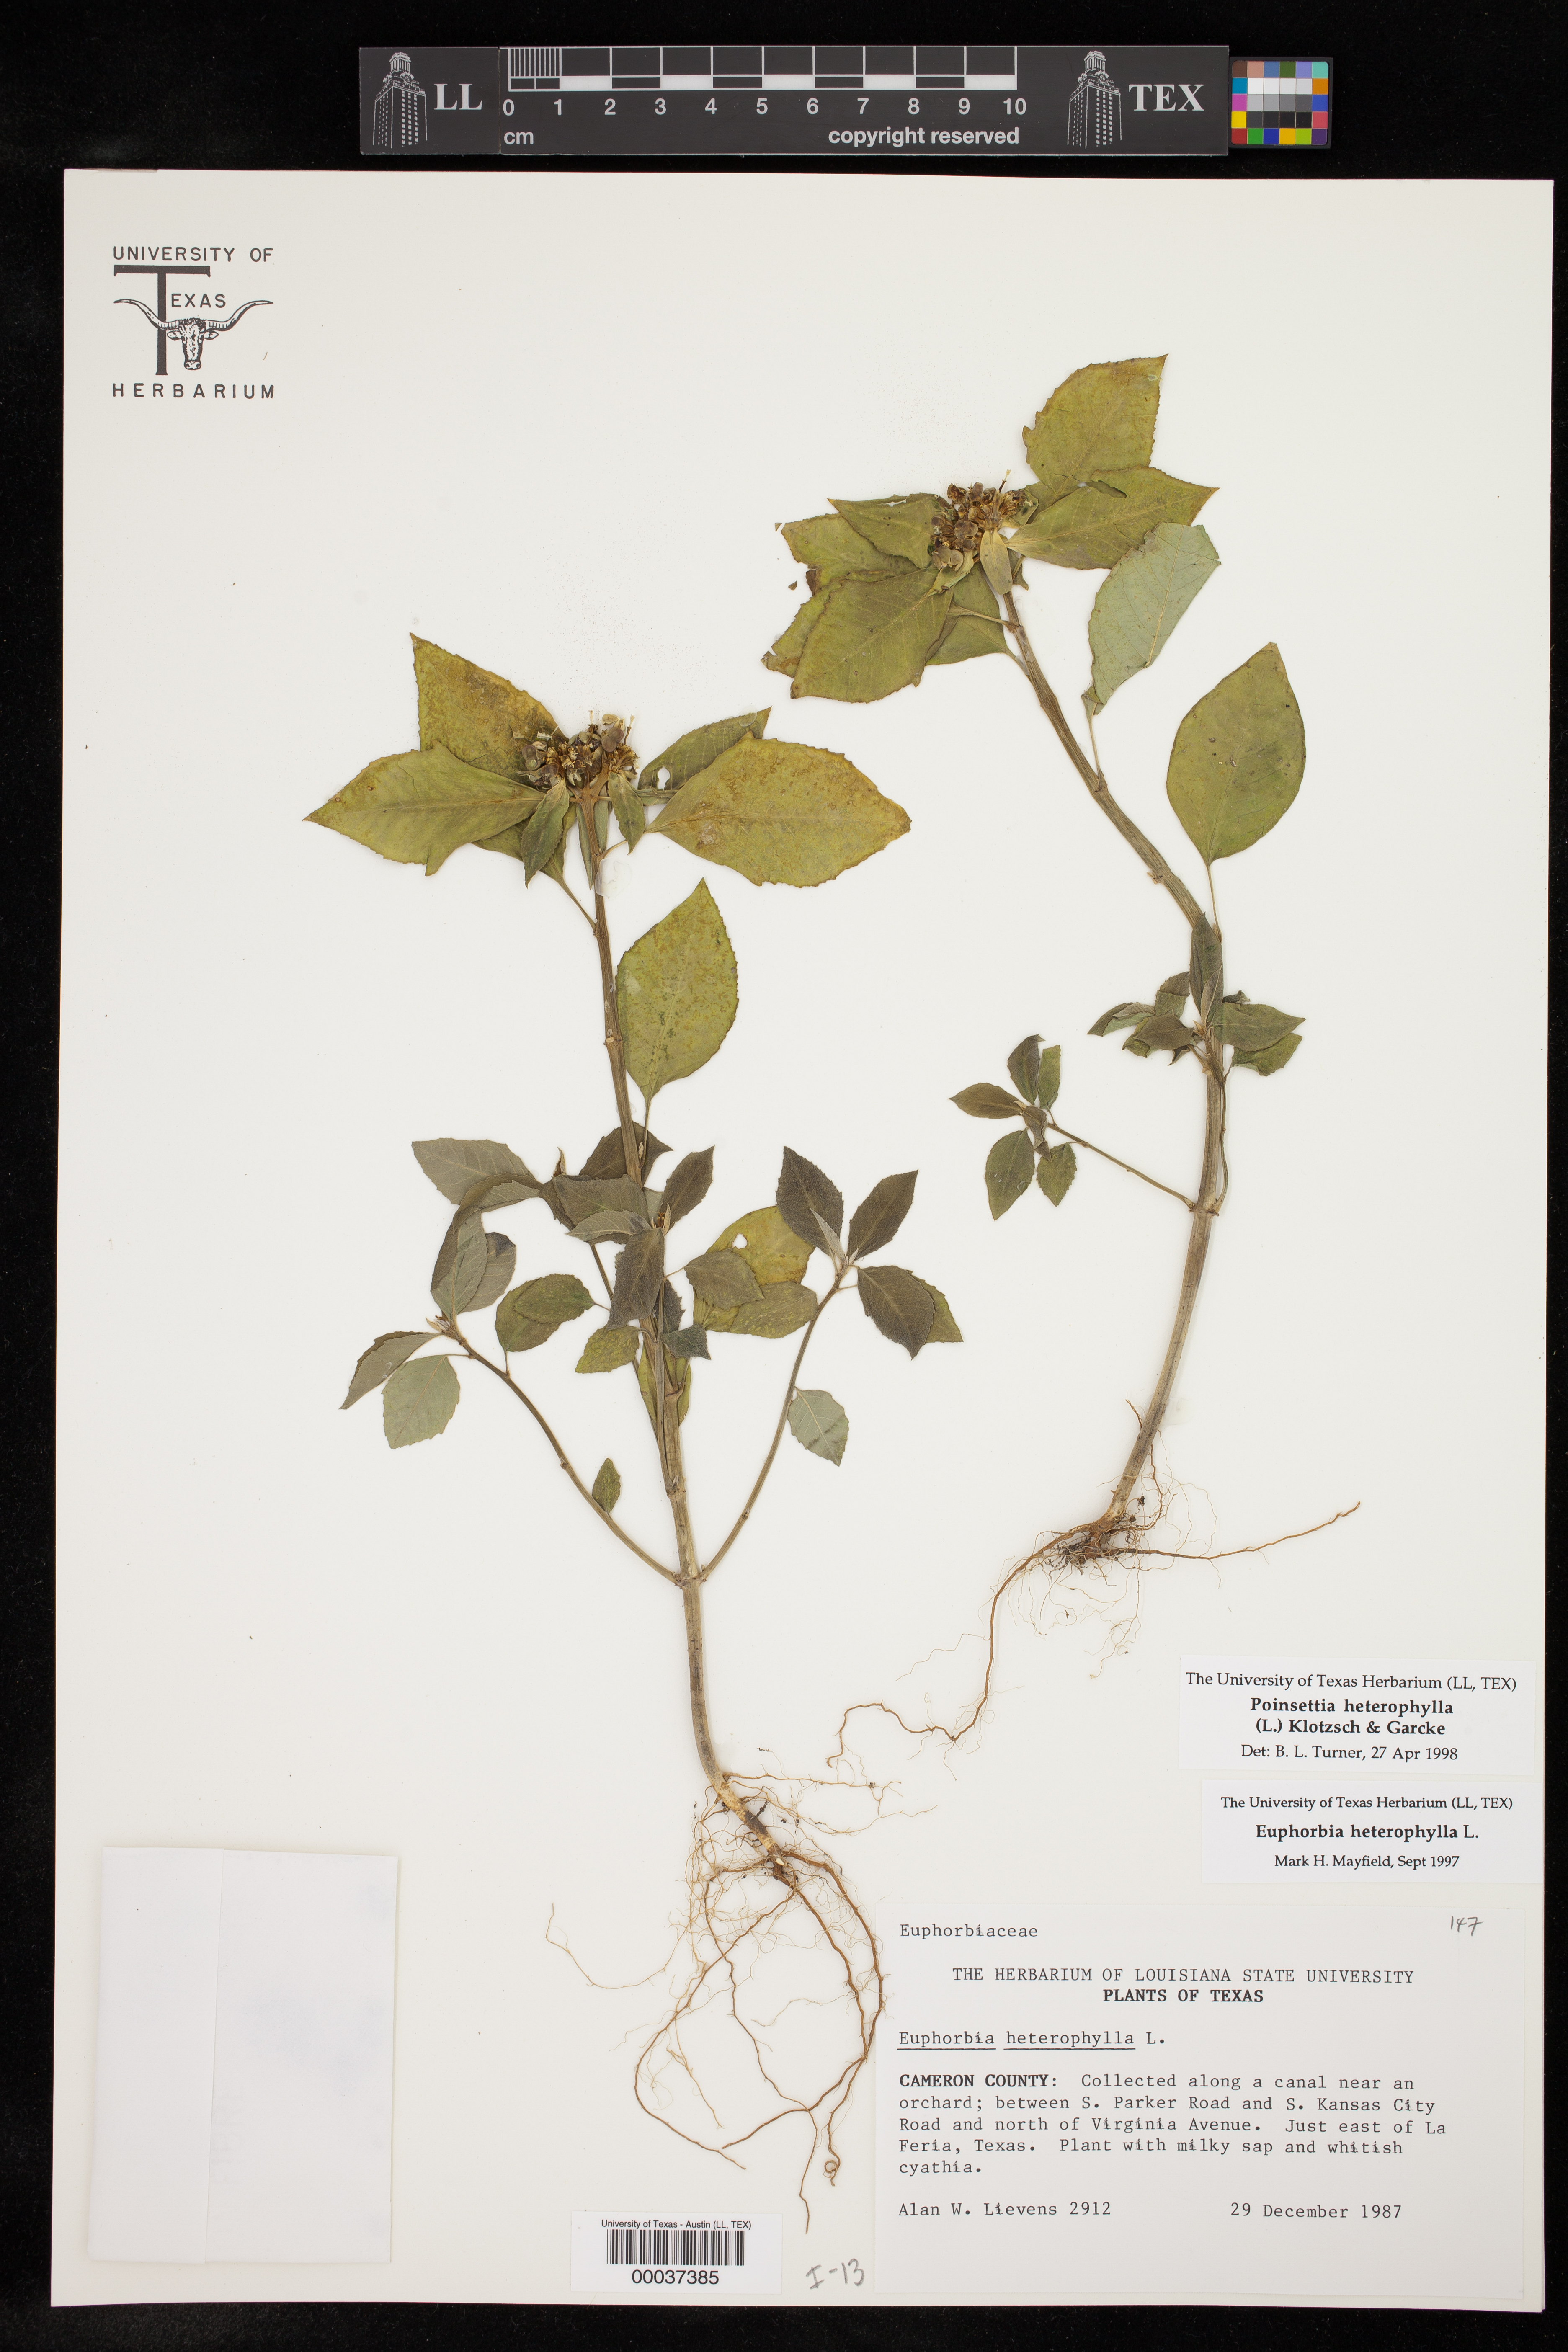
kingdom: Plantae
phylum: Tracheophyta
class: Magnoliopsida
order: Malpighiales
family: Euphorbiaceae
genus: Euphorbia
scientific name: Euphorbia heterophylla
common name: Mexican fireplant
